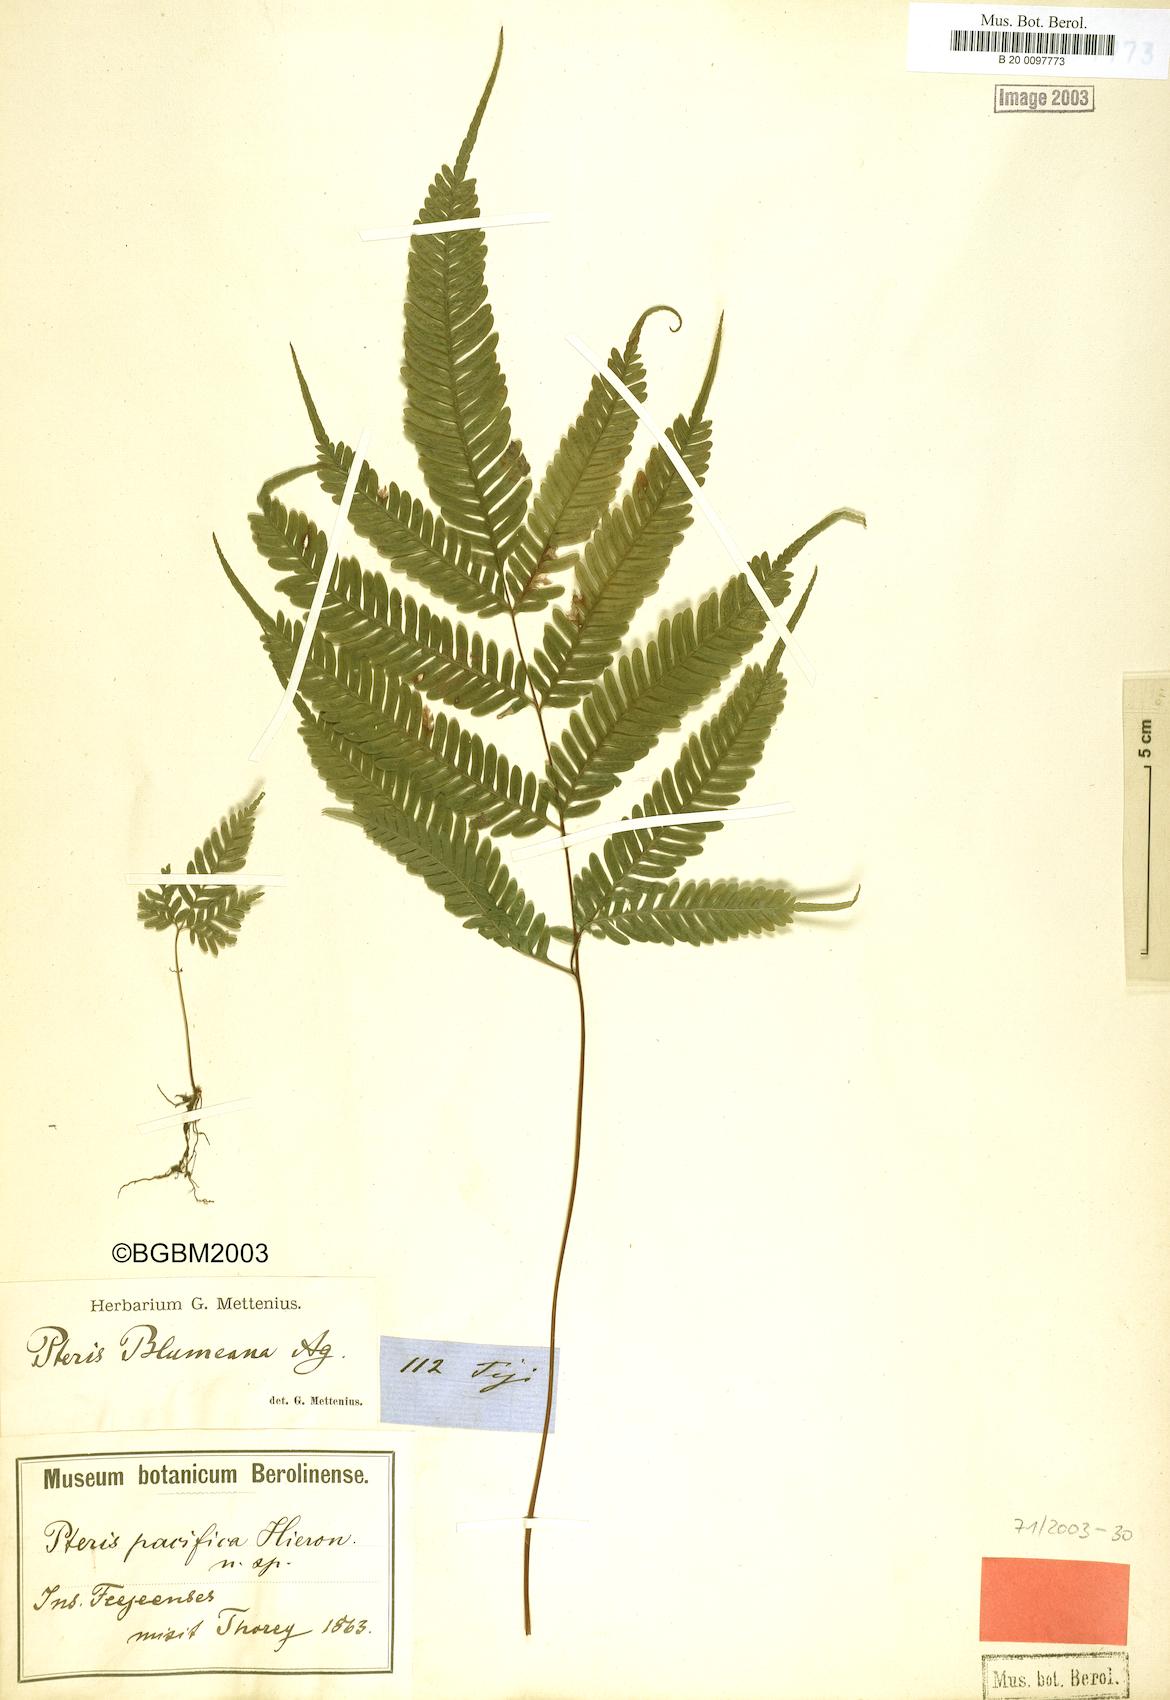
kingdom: Plantae
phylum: Tracheophyta
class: Polypodiopsida
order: Polypodiales
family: Pteridaceae
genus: Pteris
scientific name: Pteris biaurita
